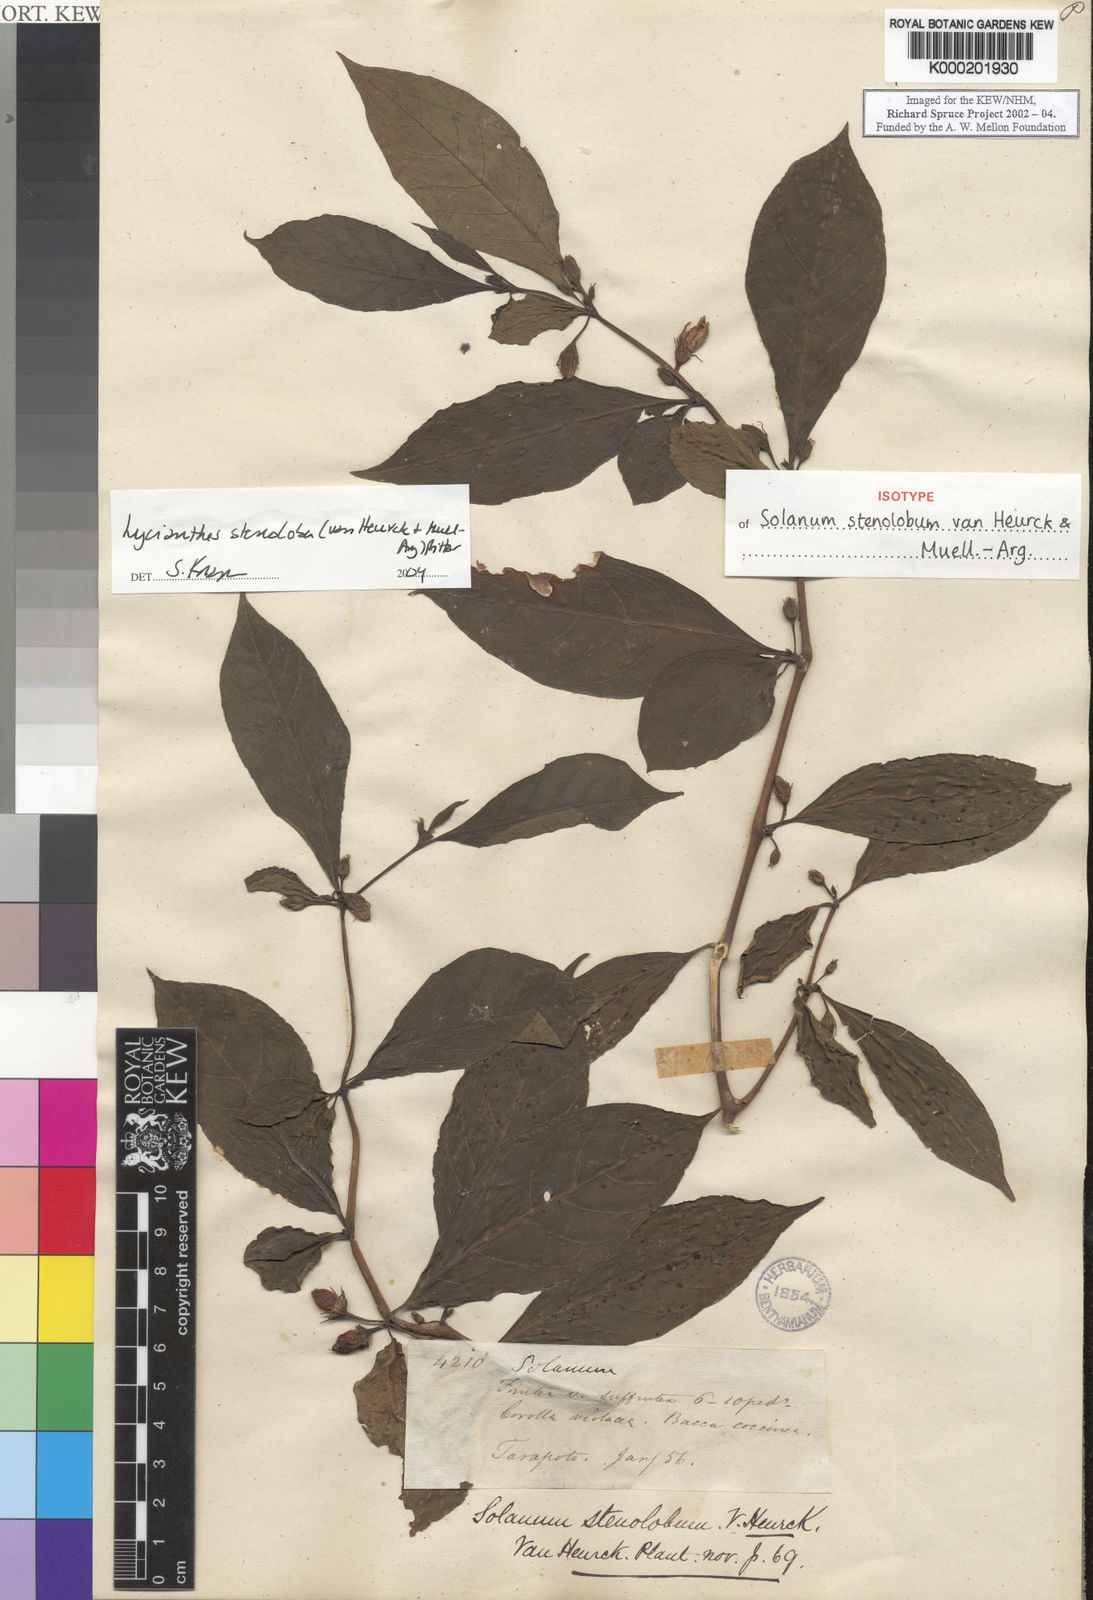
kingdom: Plantae
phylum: Tracheophyta
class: Magnoliopsida
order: Solanales
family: Solanaceae
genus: Lycianthes
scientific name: Lycianthes
